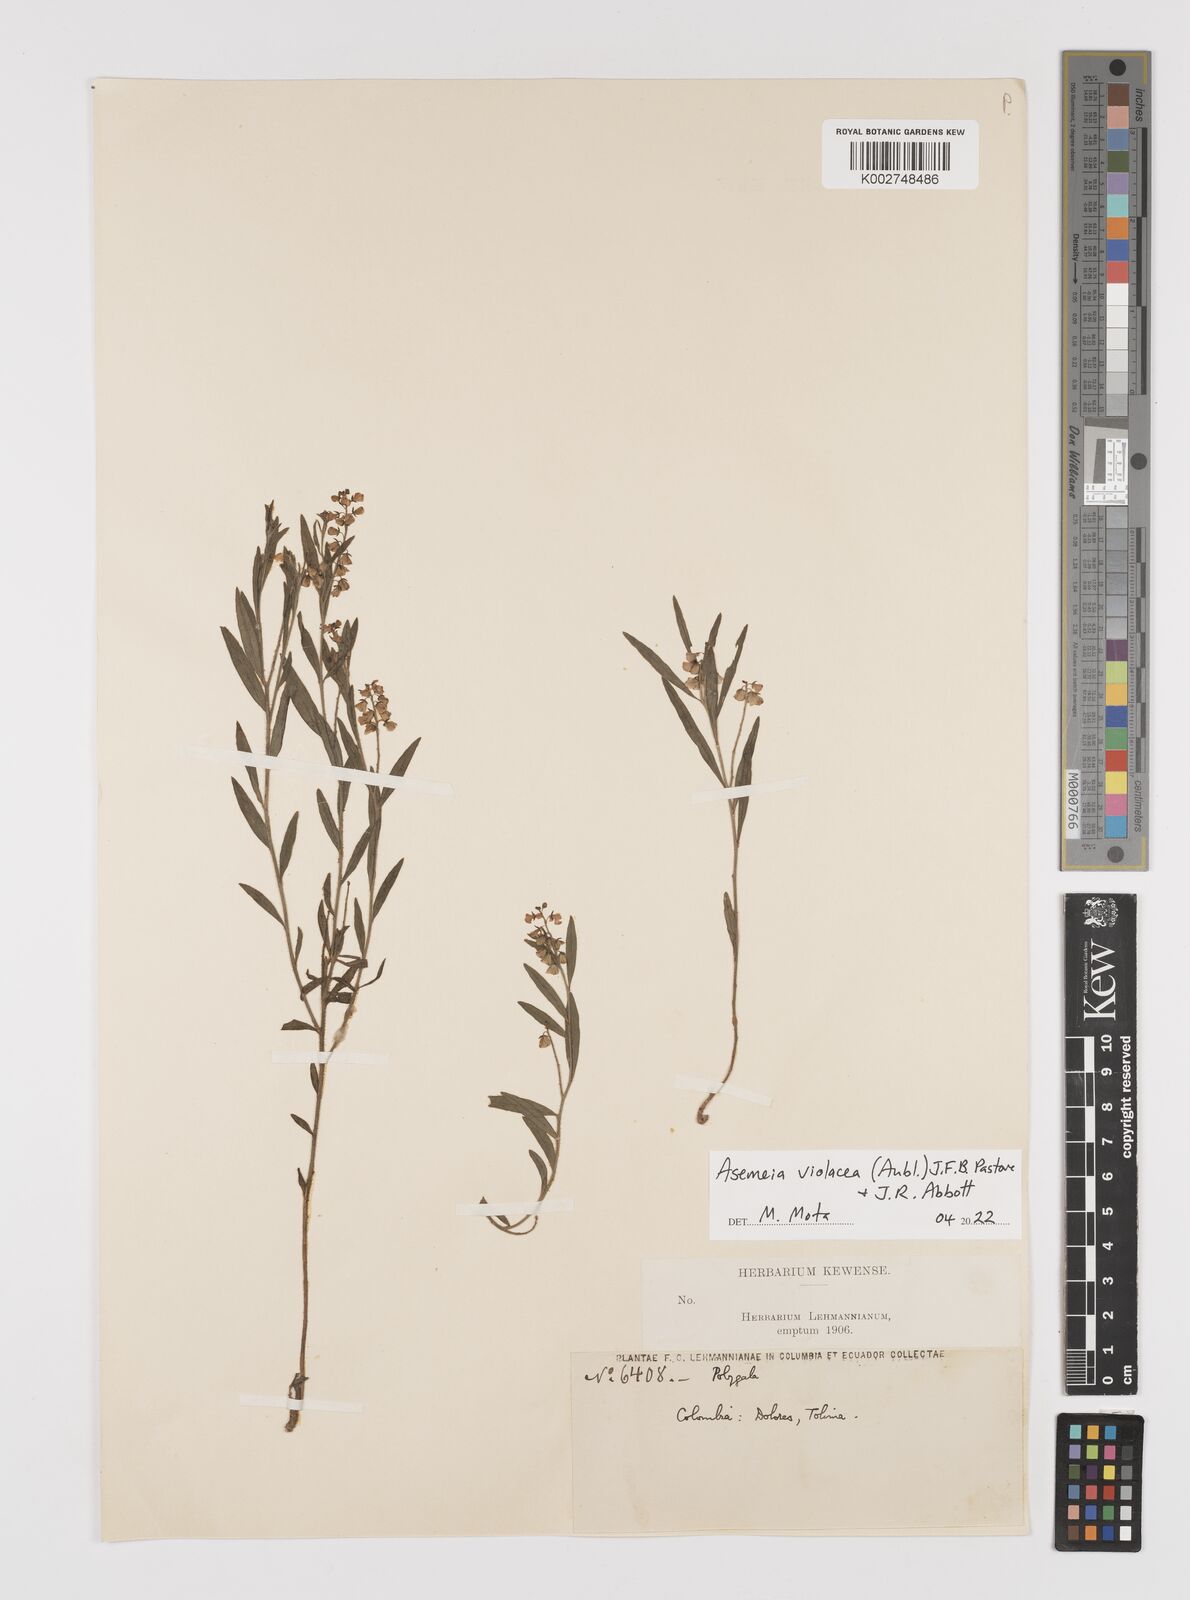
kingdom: Plantae
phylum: Tracheophyta
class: Magnoliopsida
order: Fabales
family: Polygalaceae
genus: Asemeia
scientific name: Asemeia violacea
